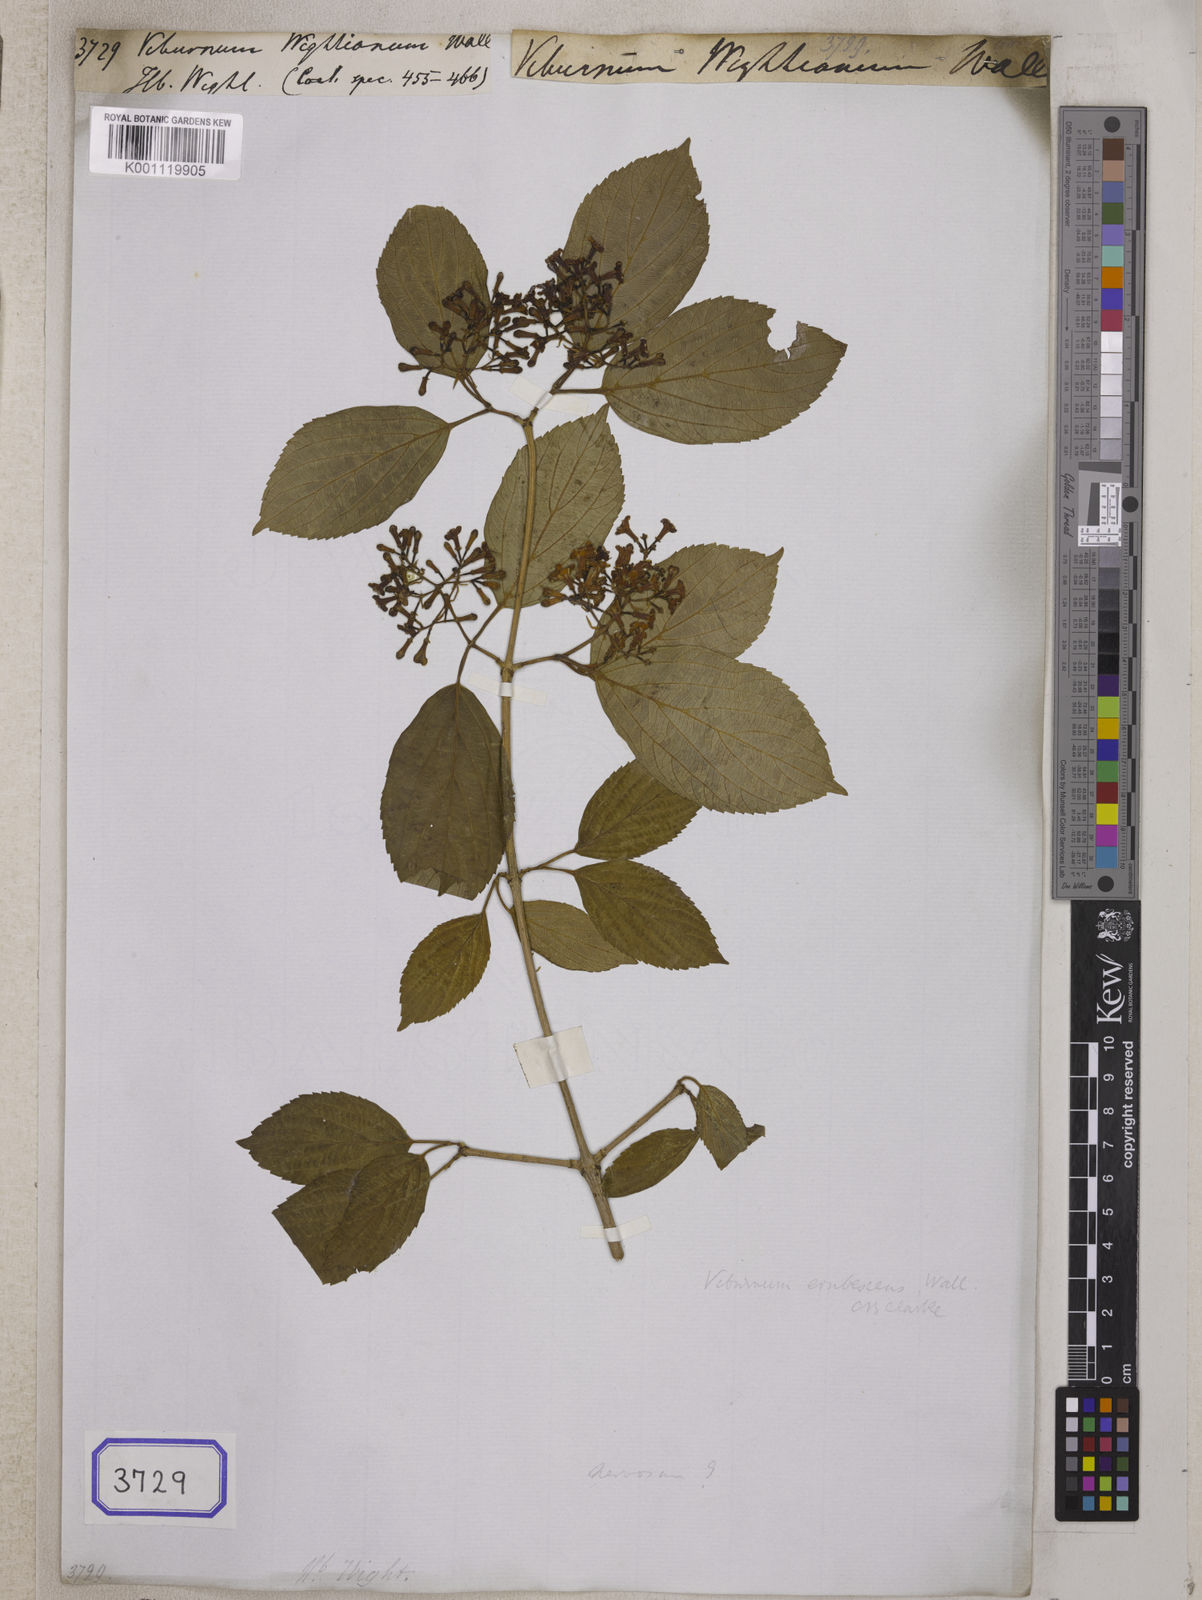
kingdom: Plantae
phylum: Tracheophyta
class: Magnoliopsida
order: Apiales
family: Araliaceae
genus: Panax
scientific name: Panax pseudoginseng
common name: Pseudoginseng
